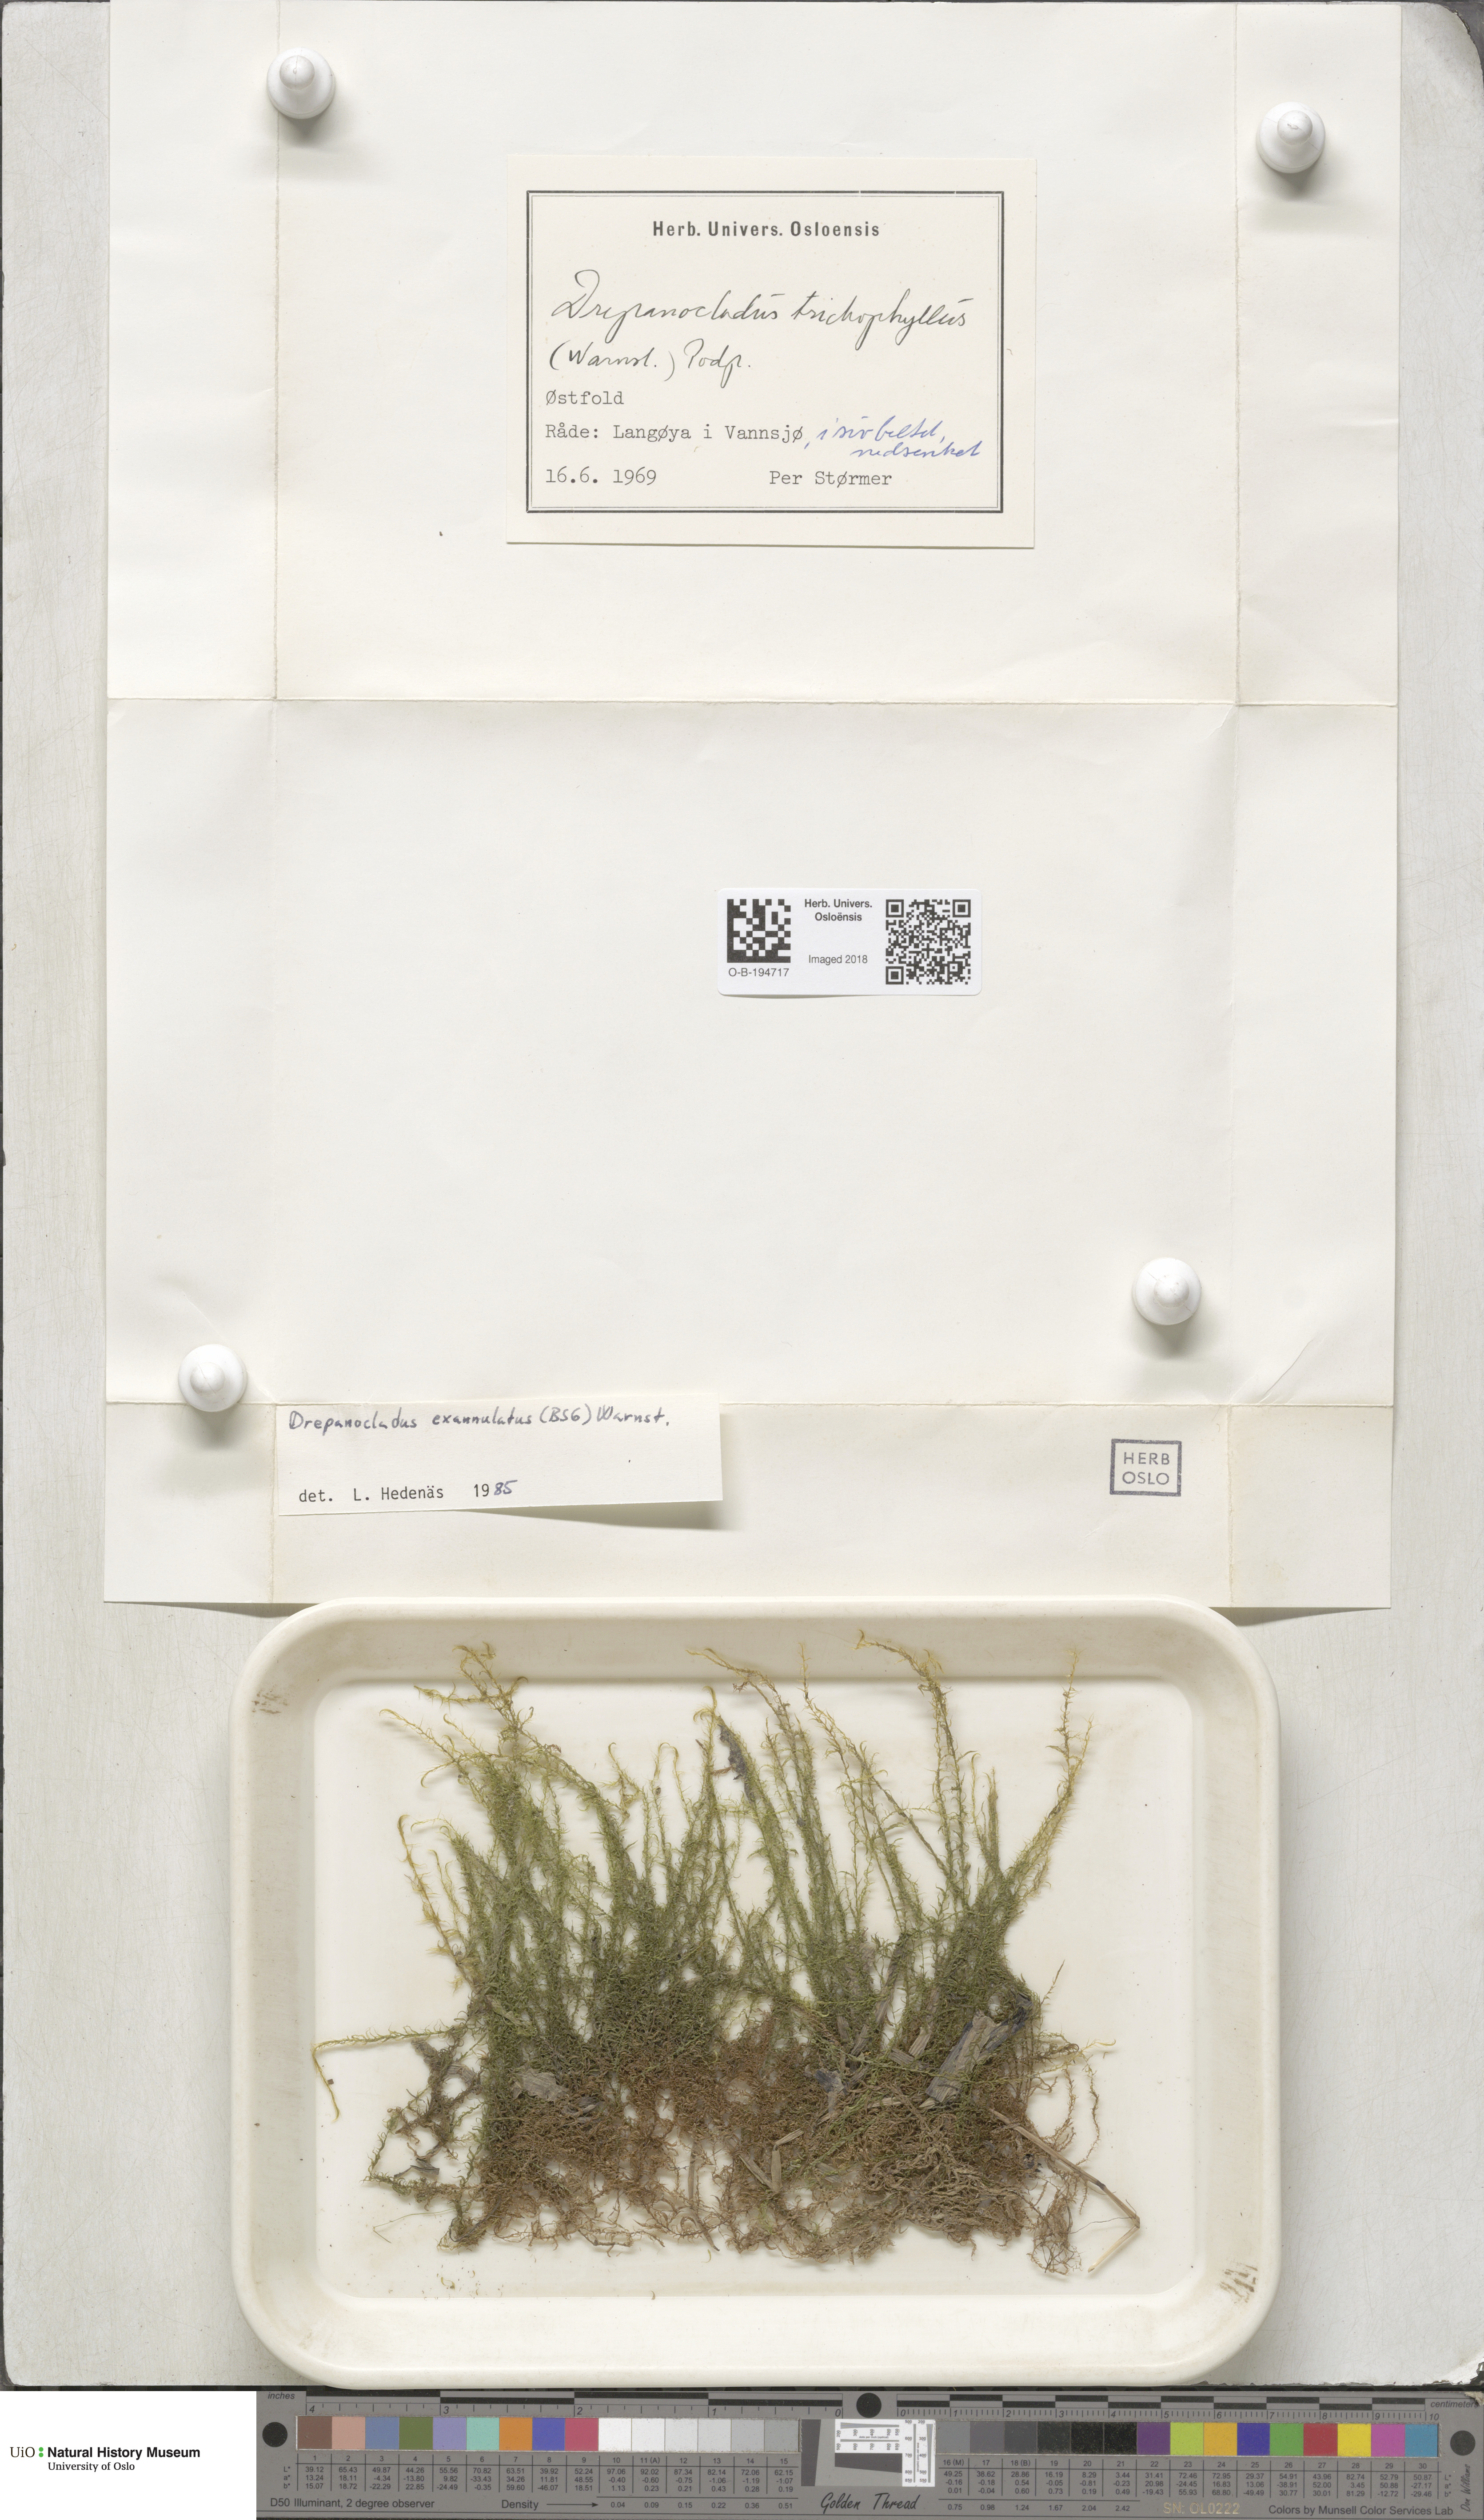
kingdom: Plantae
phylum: Bryophyta
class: Bryopsida
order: Hypnales
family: Calliergonaceae
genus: Sarmentypnum
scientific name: Sarmentypnum exannulatum
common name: Ringless spoon moss
